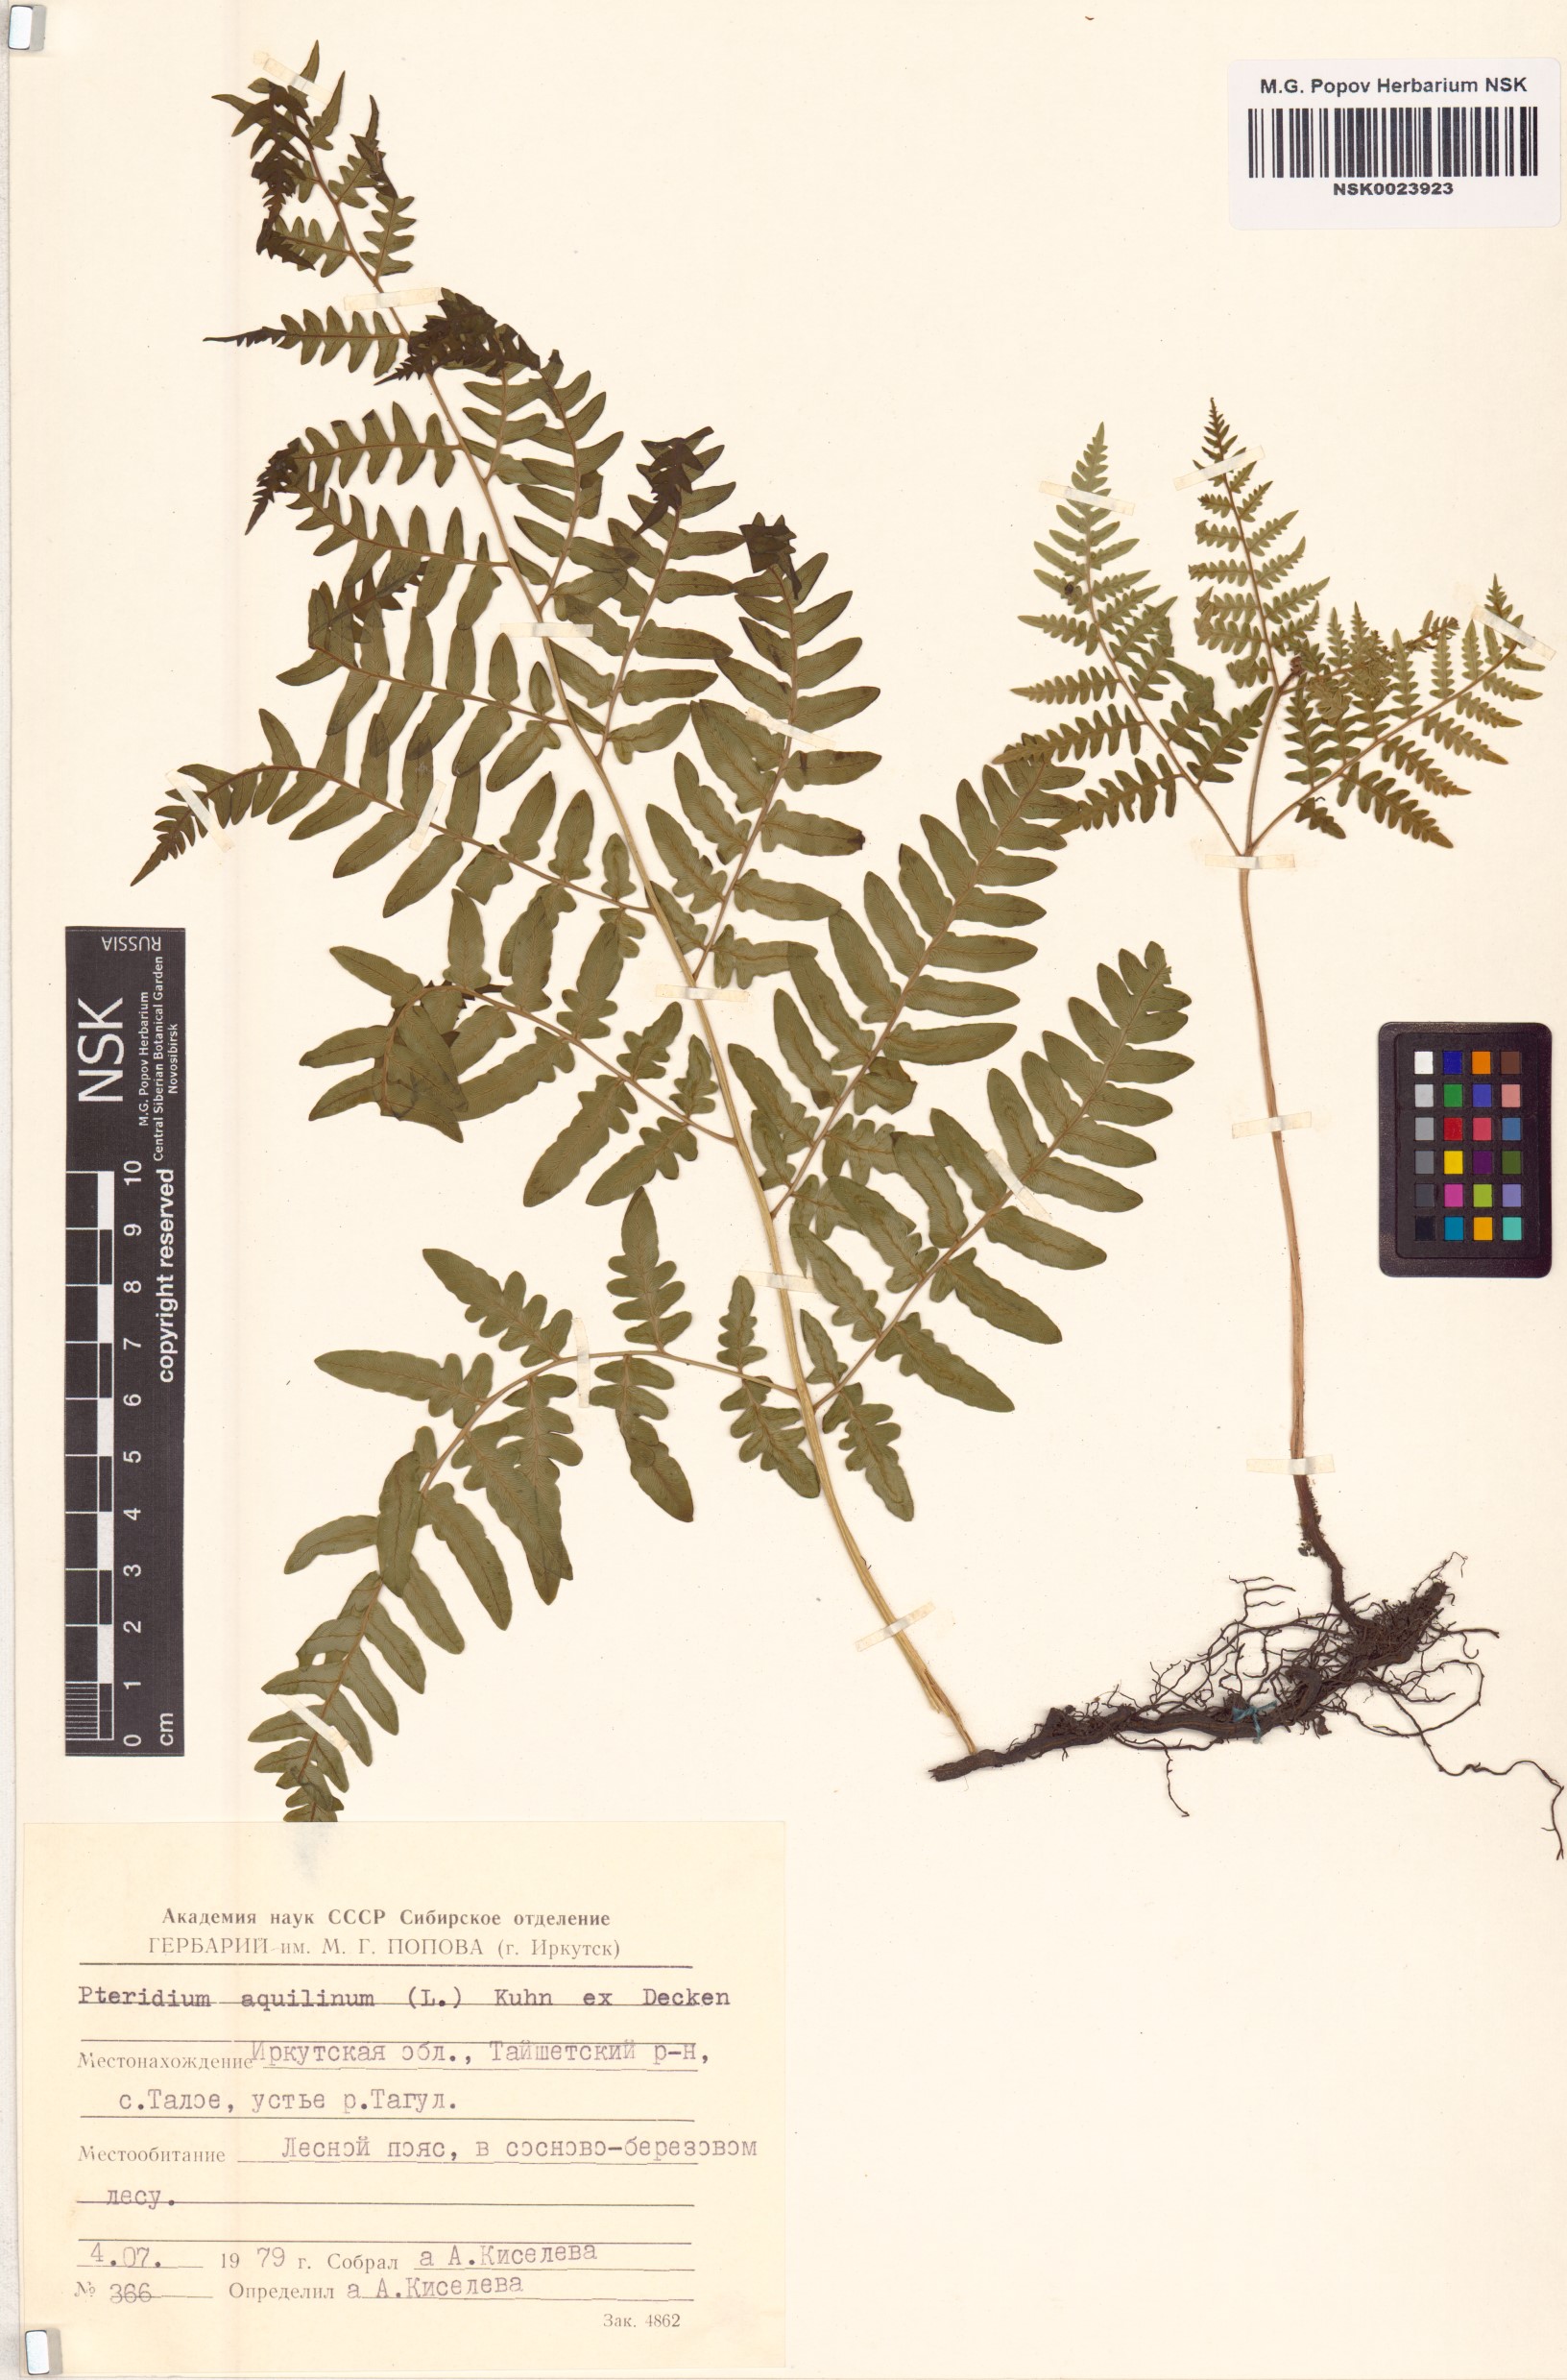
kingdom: Plantae
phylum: Tracheophyta
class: Polypodiopsida
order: Polypodiales
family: Dennstaedtiaceae
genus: Pteridium
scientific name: Pteridium aquilinum
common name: Bracken
